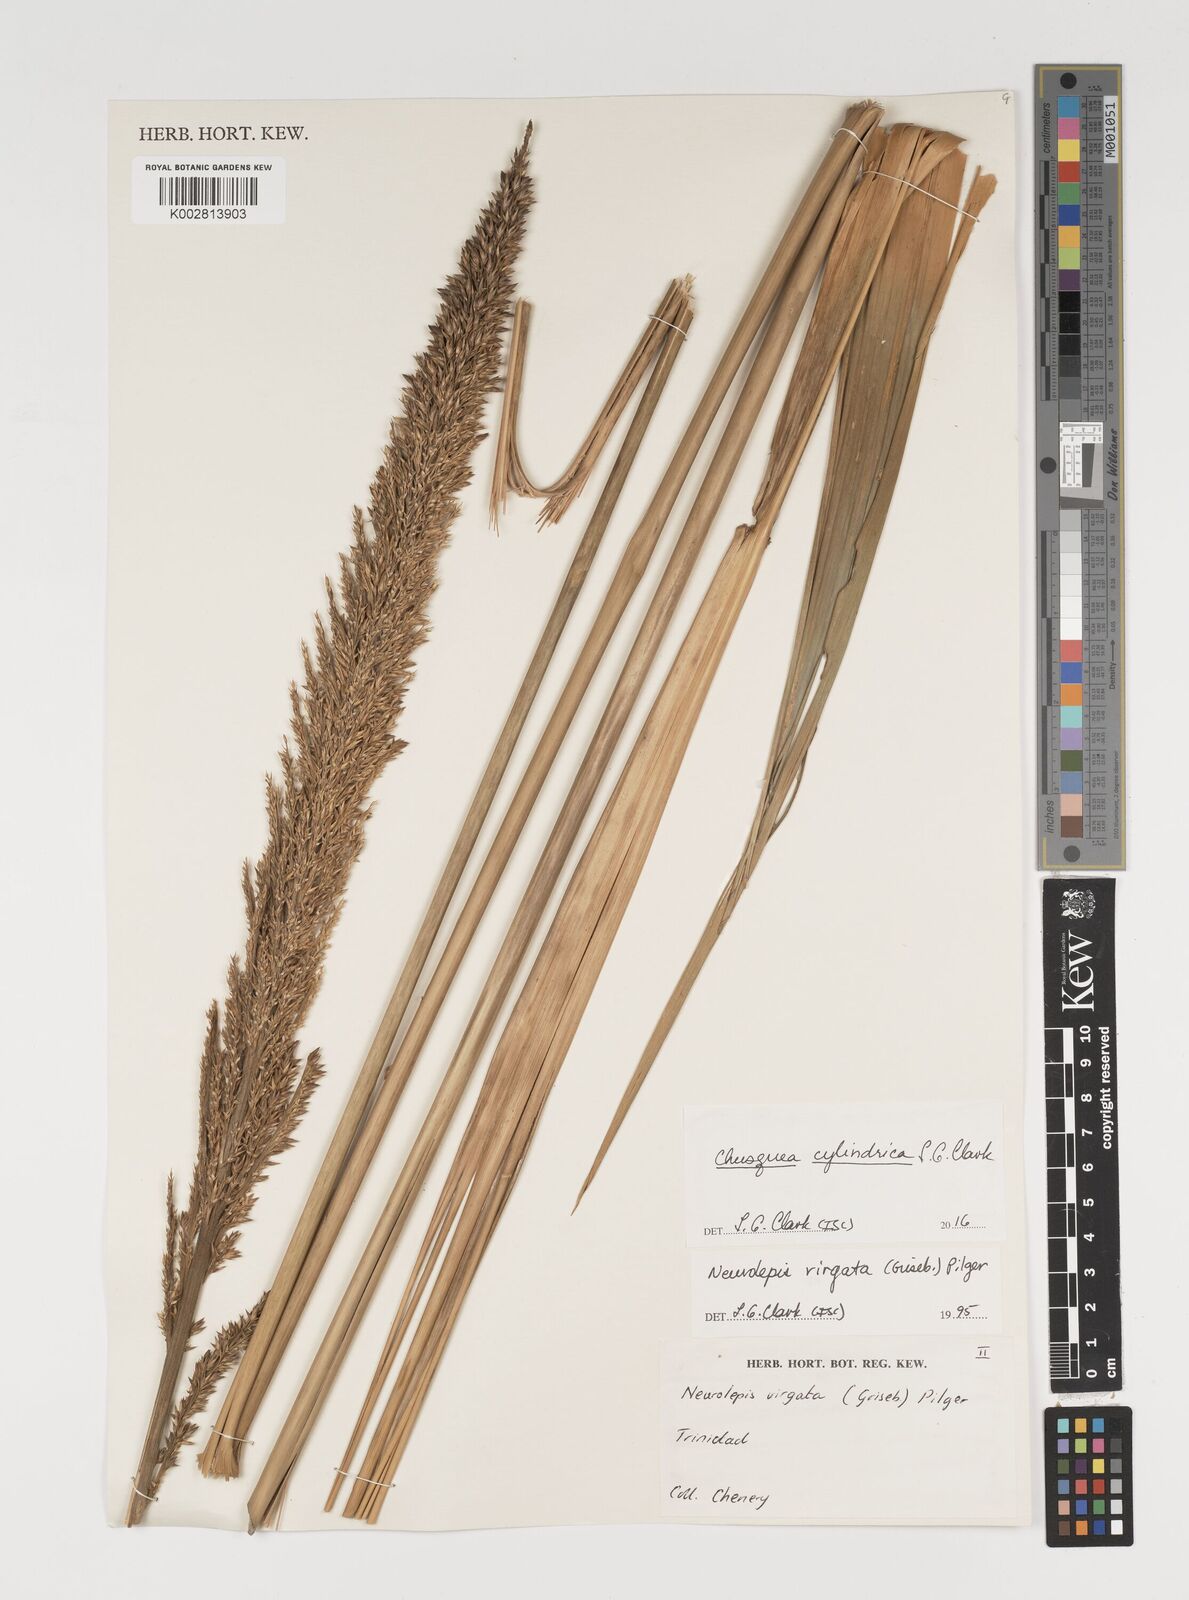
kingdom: Plantae
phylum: Tracheophyta
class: Liliopsida
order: Poales
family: Poaceae
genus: Chusquea
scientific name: Chusquea cylindrica
